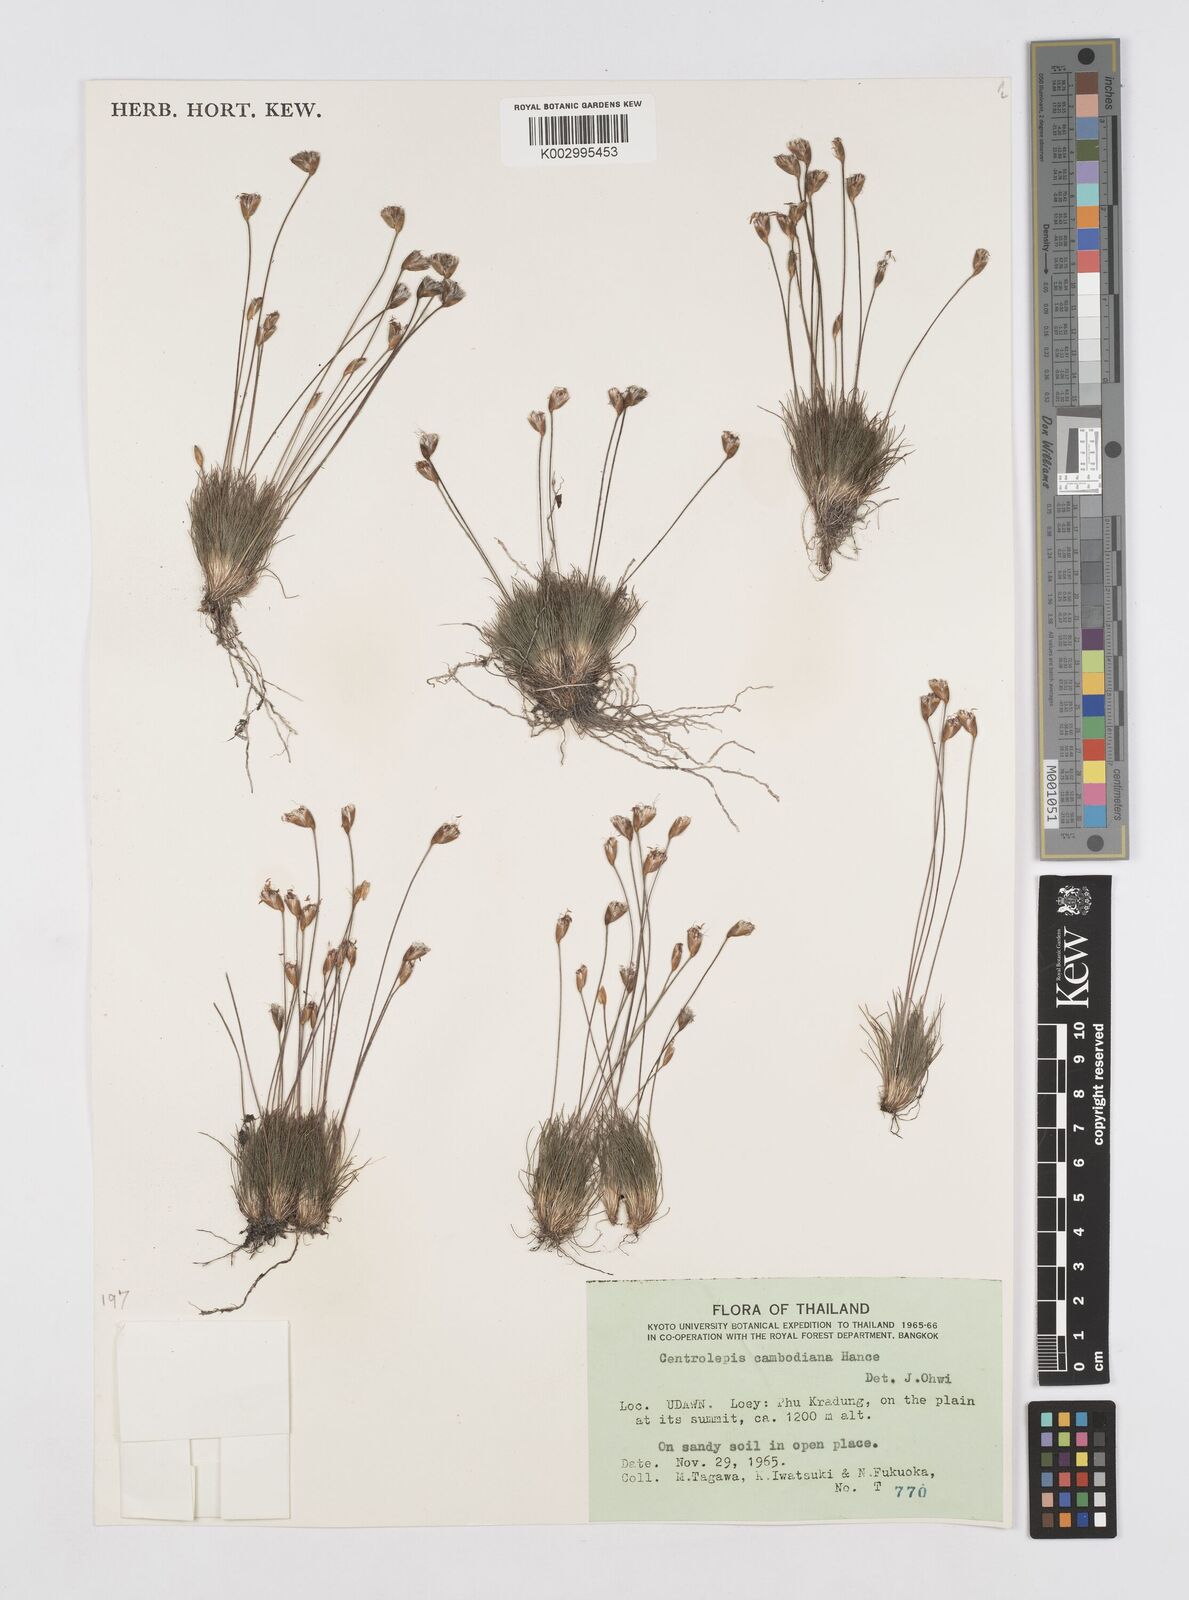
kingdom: Plantae
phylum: Tracheophyta
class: Liliopsida
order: Poales
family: Restionaceae
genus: Centrolepis
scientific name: Centrolepis cambodiana
